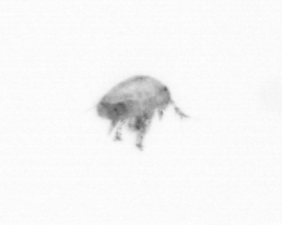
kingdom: Animalia
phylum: Arthropoda
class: Copepoda
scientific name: Copepoda
